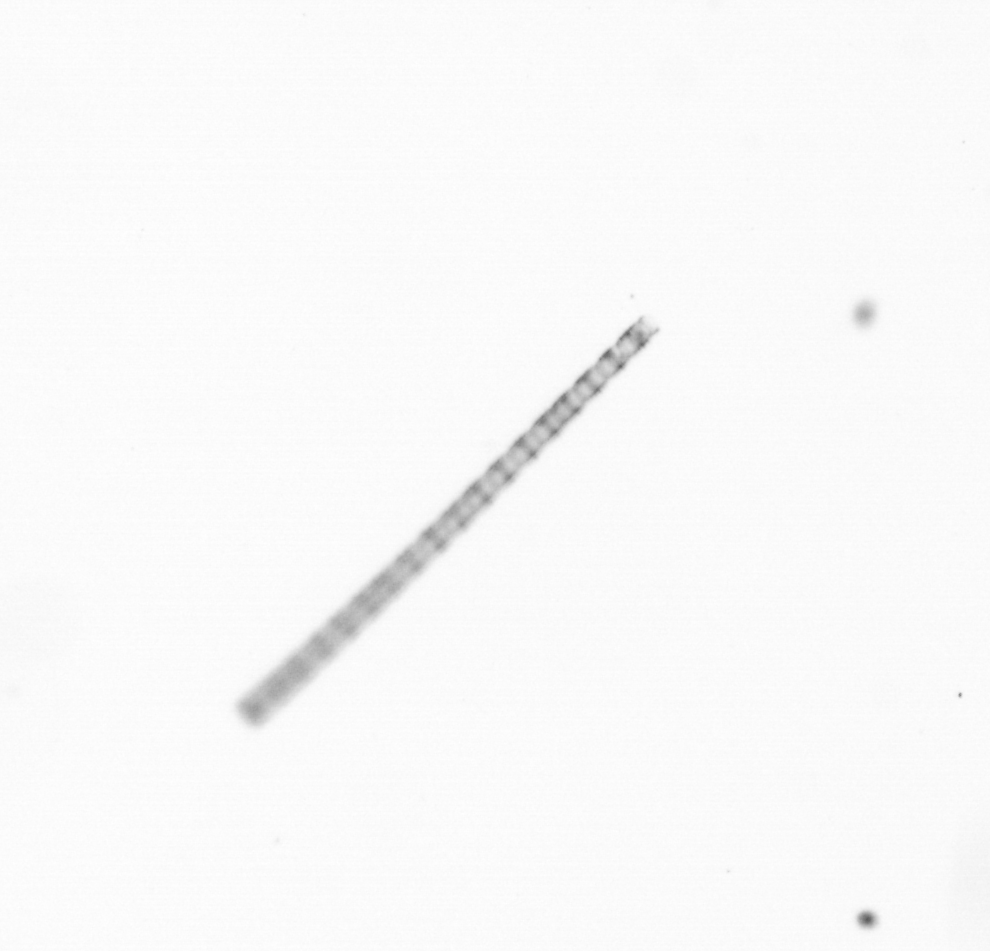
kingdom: Chromista
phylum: Ochrophyta
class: Bacillariophyceae
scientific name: Bacillariophyceae
